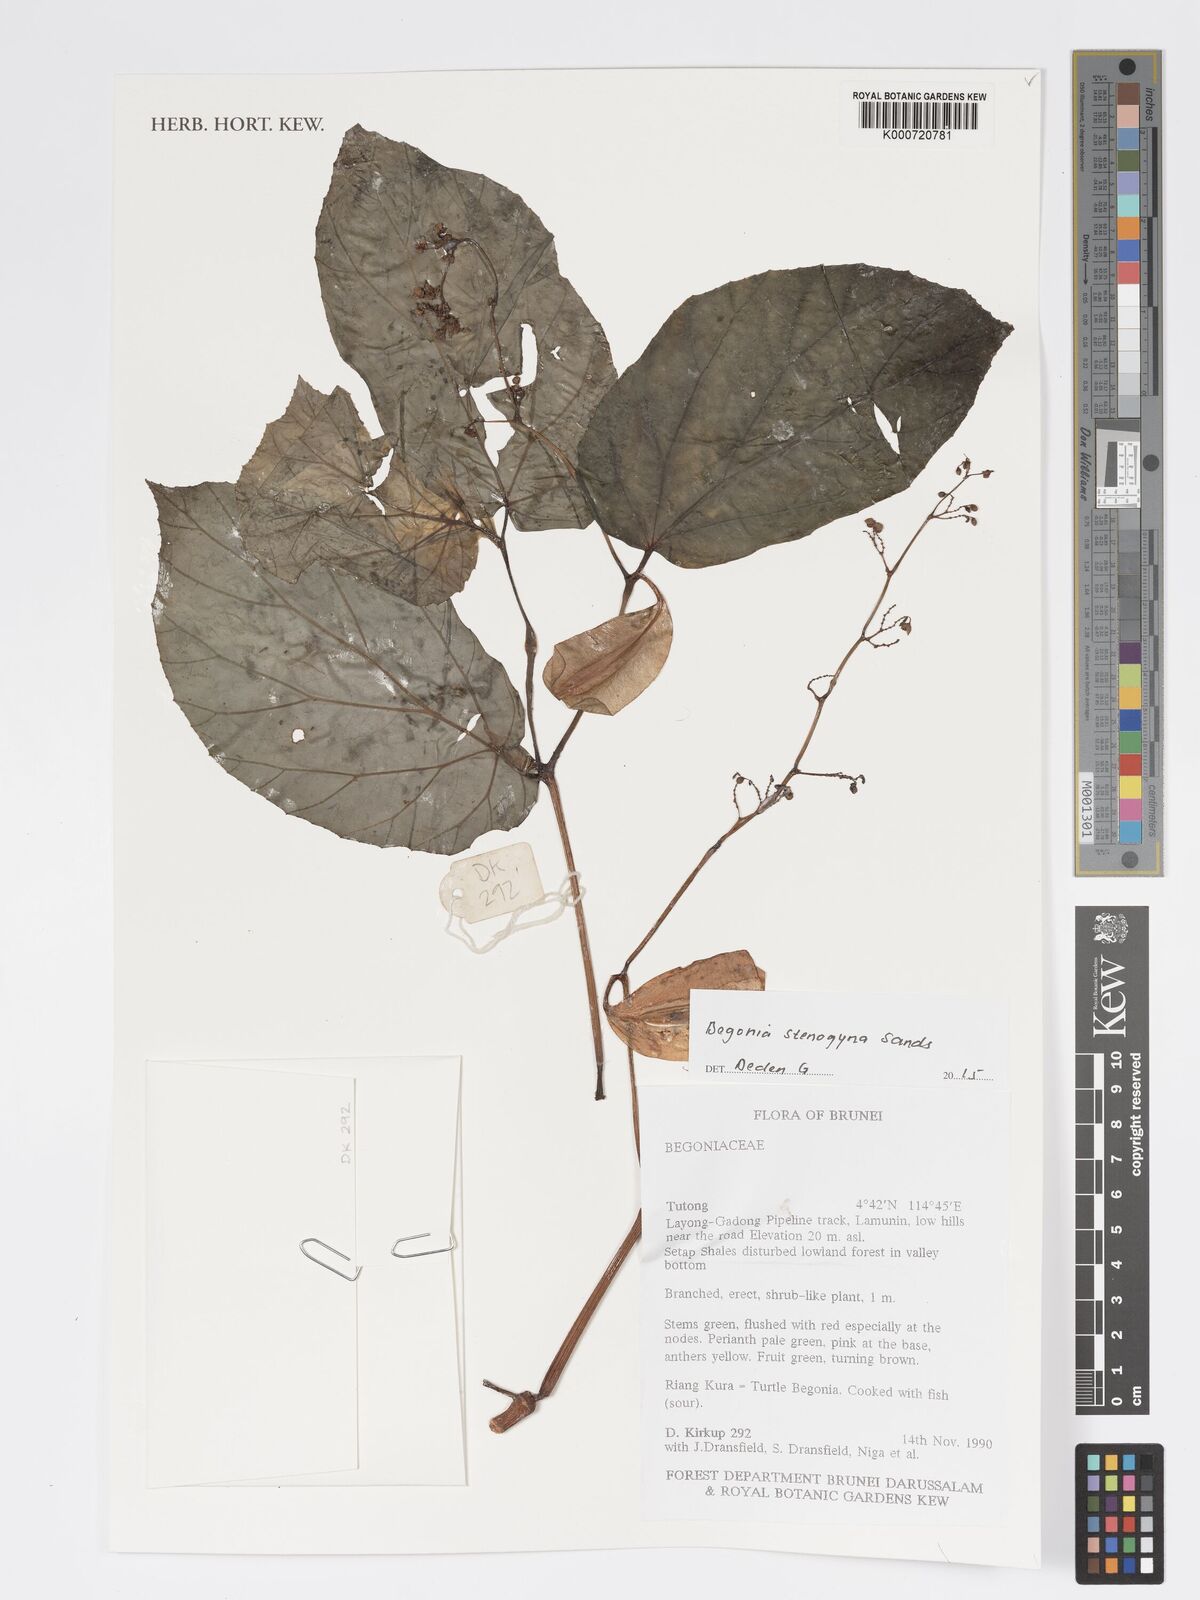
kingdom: Plantae
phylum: Tracheophyta
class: Magnoliopsida
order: Cucurbitales
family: Begoniaceae
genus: Begonia
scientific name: Begonia stenogyna
